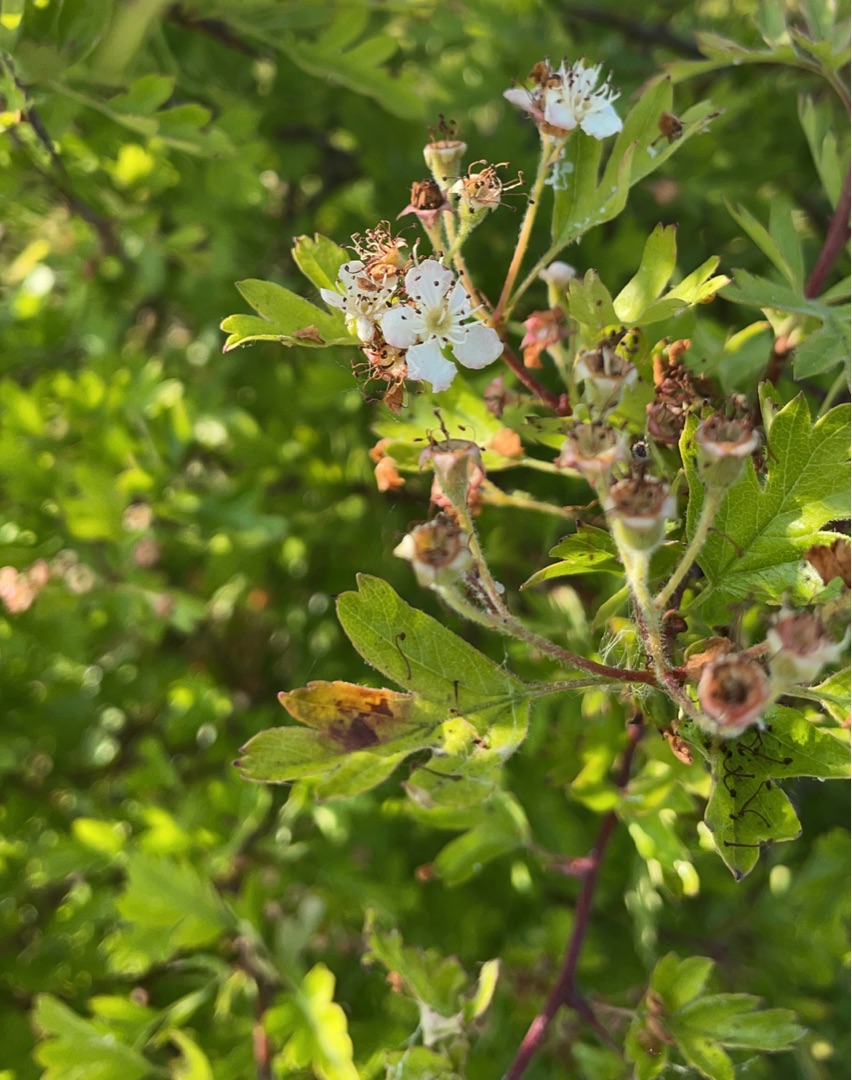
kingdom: Plantae
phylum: Tracheophyta
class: Magnoliopsida
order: Rosales
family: Rosaceae
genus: Crataegus
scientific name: Crataegus monogyna
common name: Engriflet hvidtjørn
